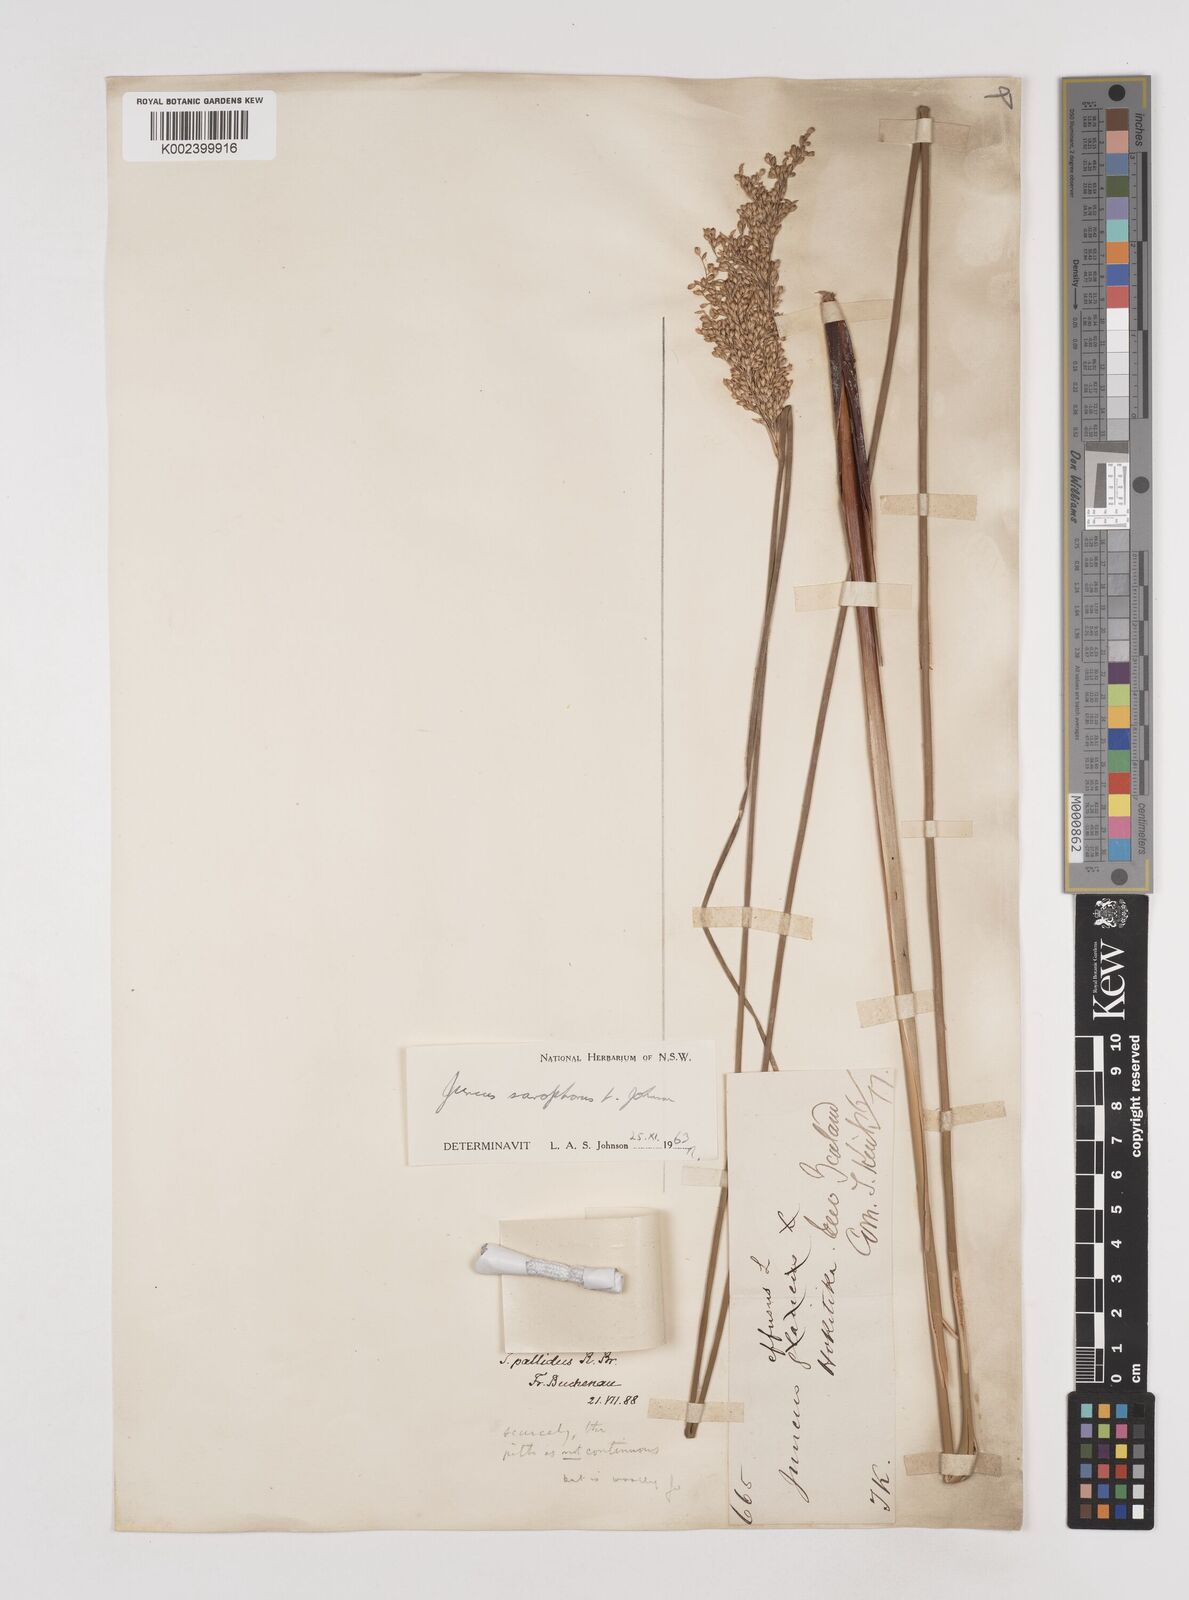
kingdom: Plantae
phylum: Tracheophyta
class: Liliopsida
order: Poales
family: Juncaceae
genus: Juncus
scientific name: Juncus sarophorus
